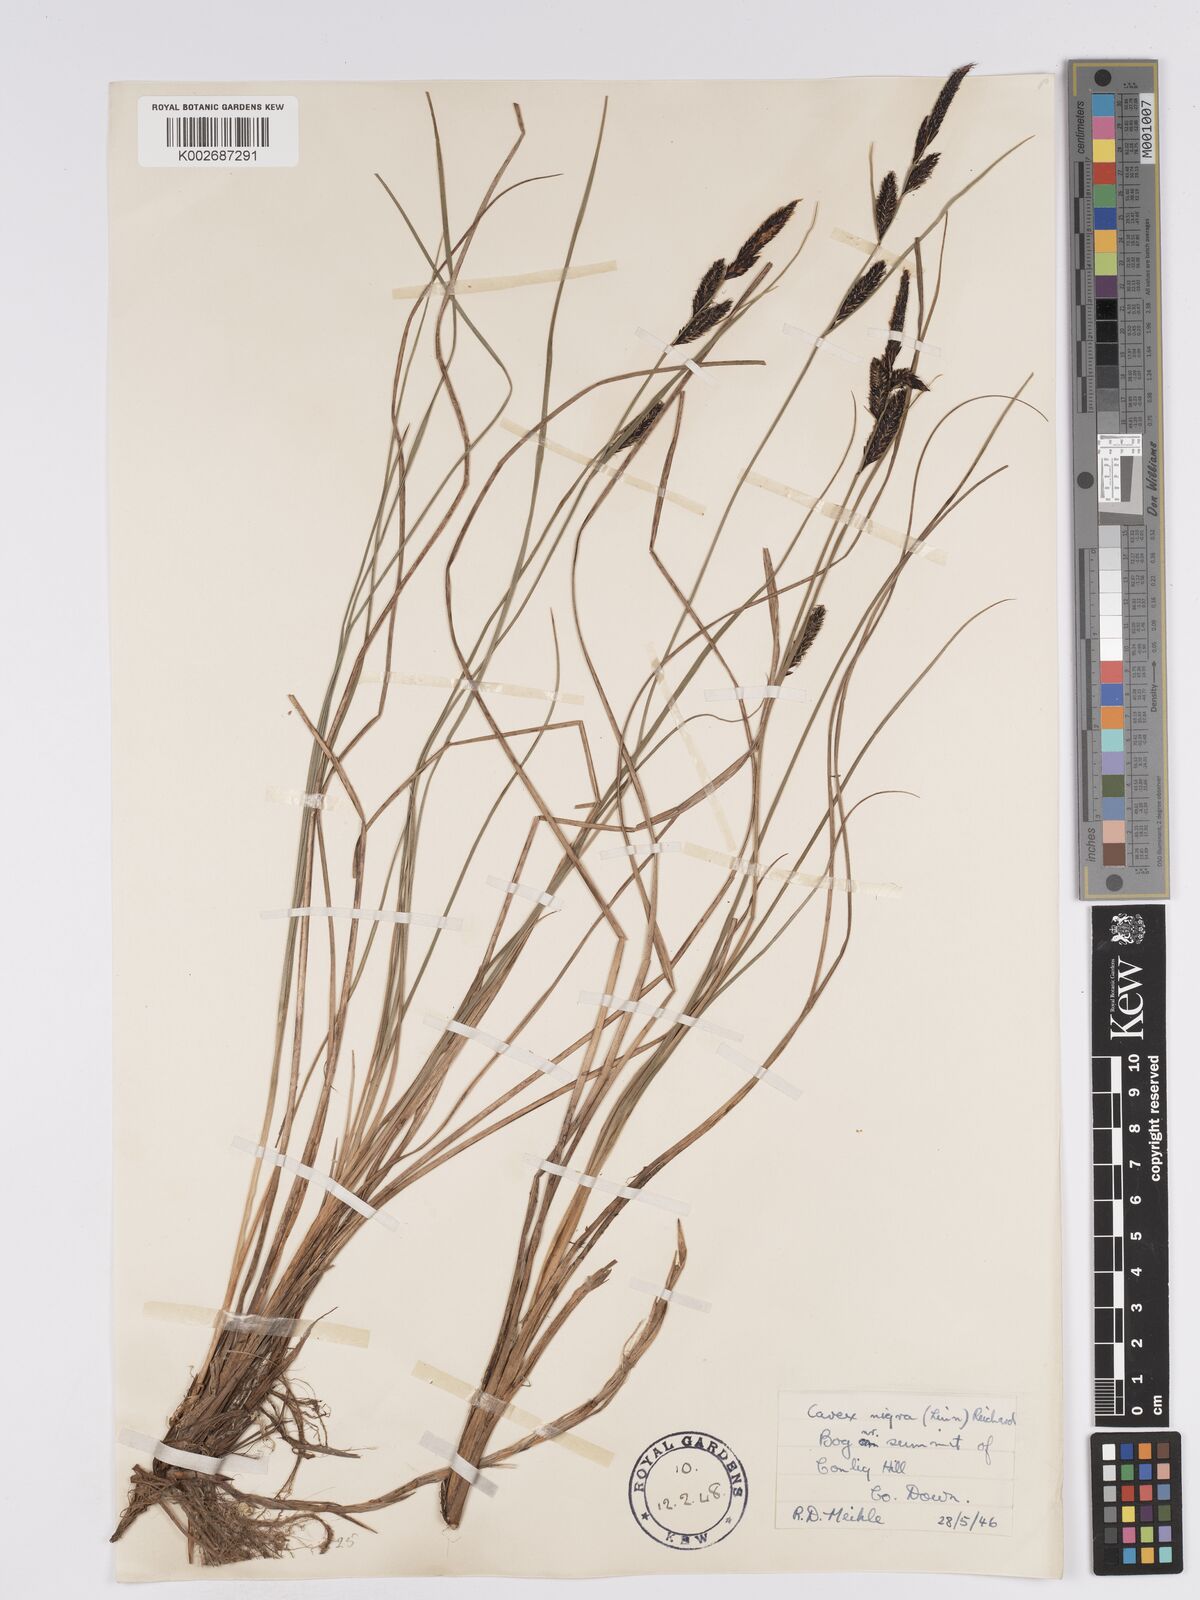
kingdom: Plantae
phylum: Tracheophyta
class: Liliopsida
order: Poales
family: Cyperaceae
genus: Carex
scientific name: Carex nigra
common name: Common sedge
